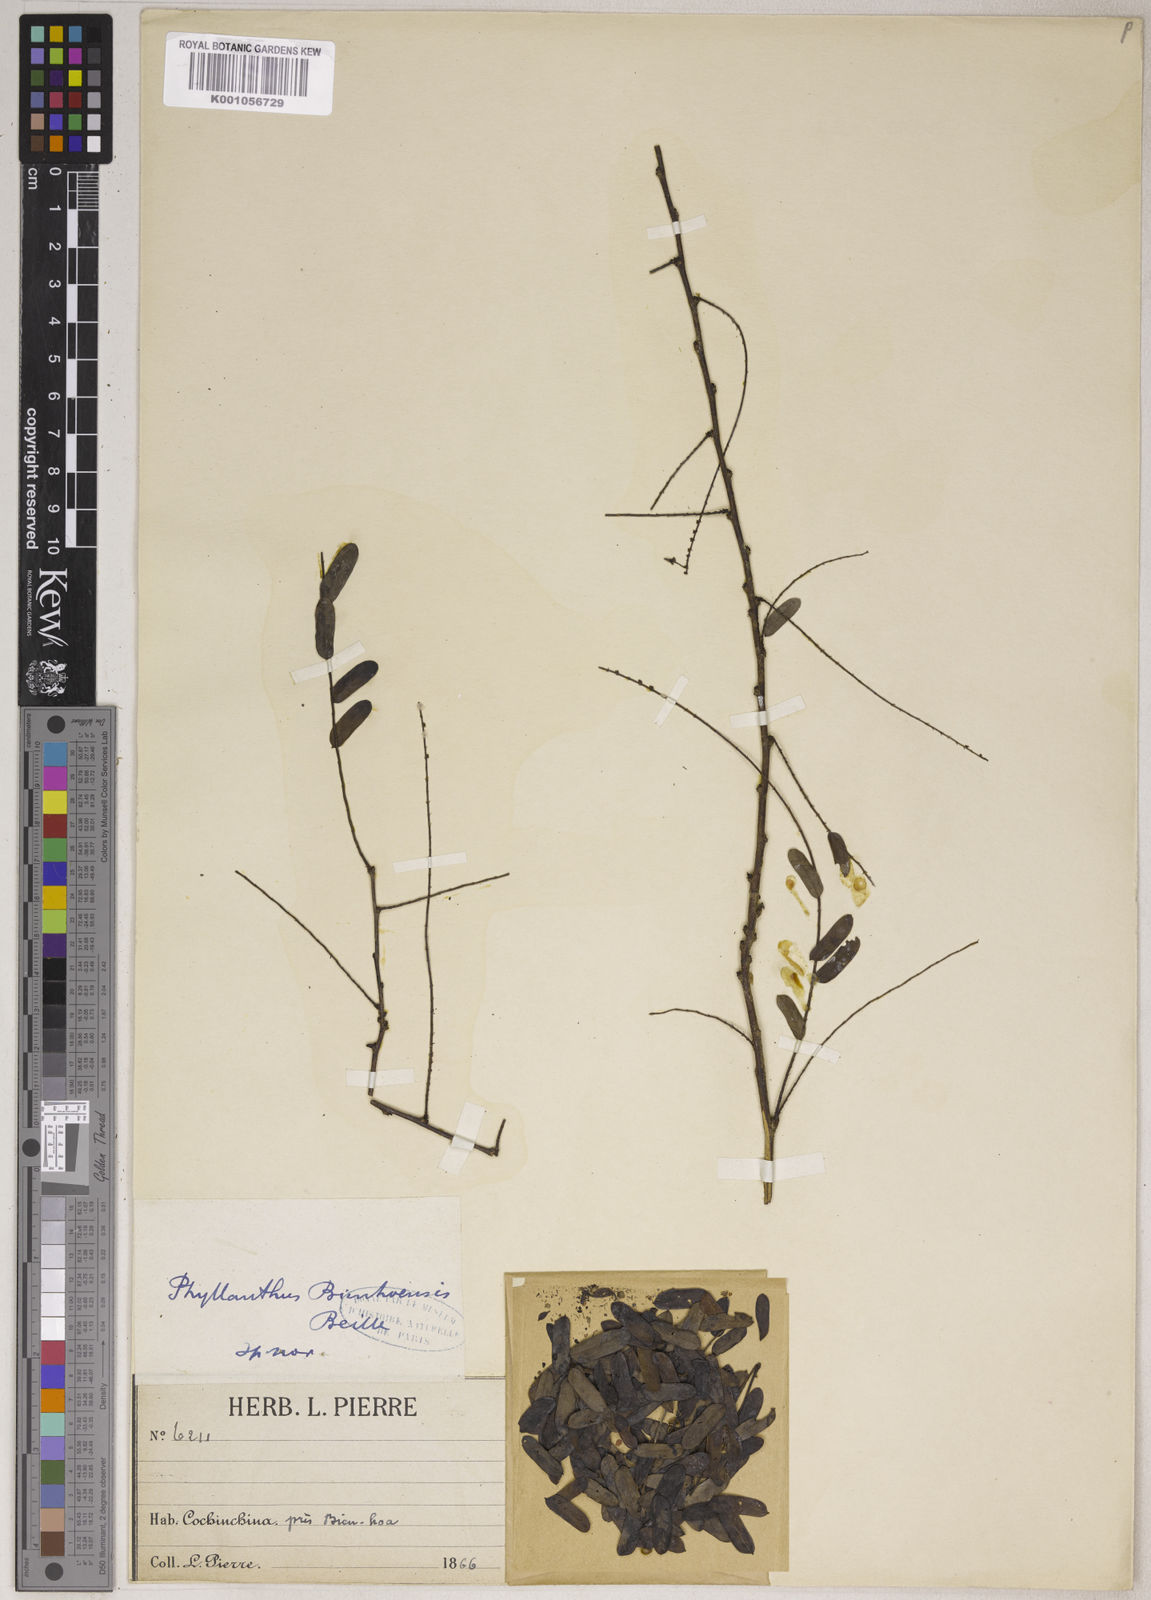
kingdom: Plantae
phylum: Tracheophyta
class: Magnoliopsida
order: Malpighiales
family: Phyllanthaceae
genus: Phyllanthus
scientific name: Phyllanthus collinsiae
